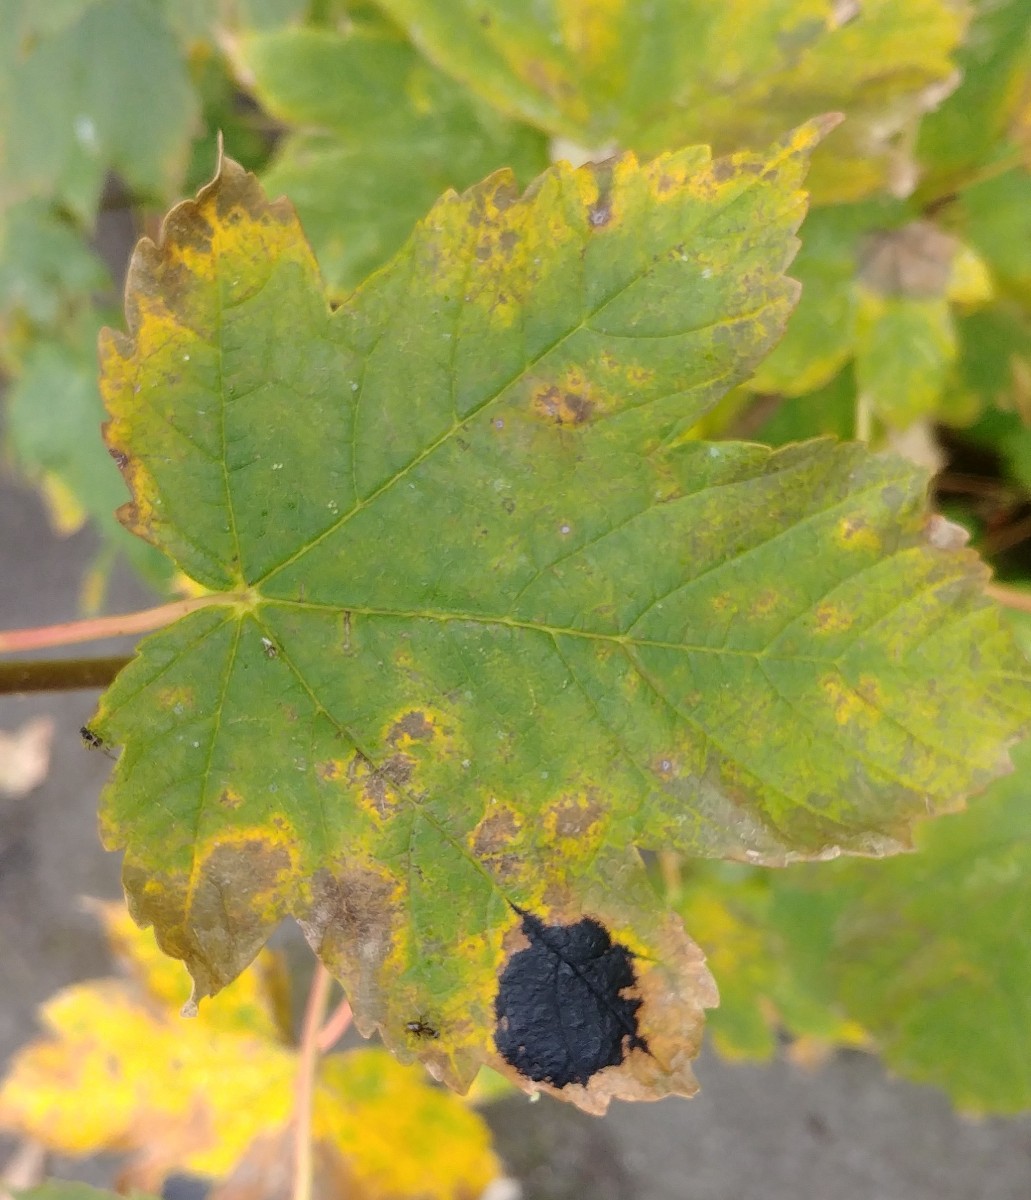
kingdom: Fungi
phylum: Ascomycota
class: Leotiomycetes
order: Rhytismatales
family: Rhytismataceae
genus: Rhytisma
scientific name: Rhytisma acerinum
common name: ahorn-rynkeplet
